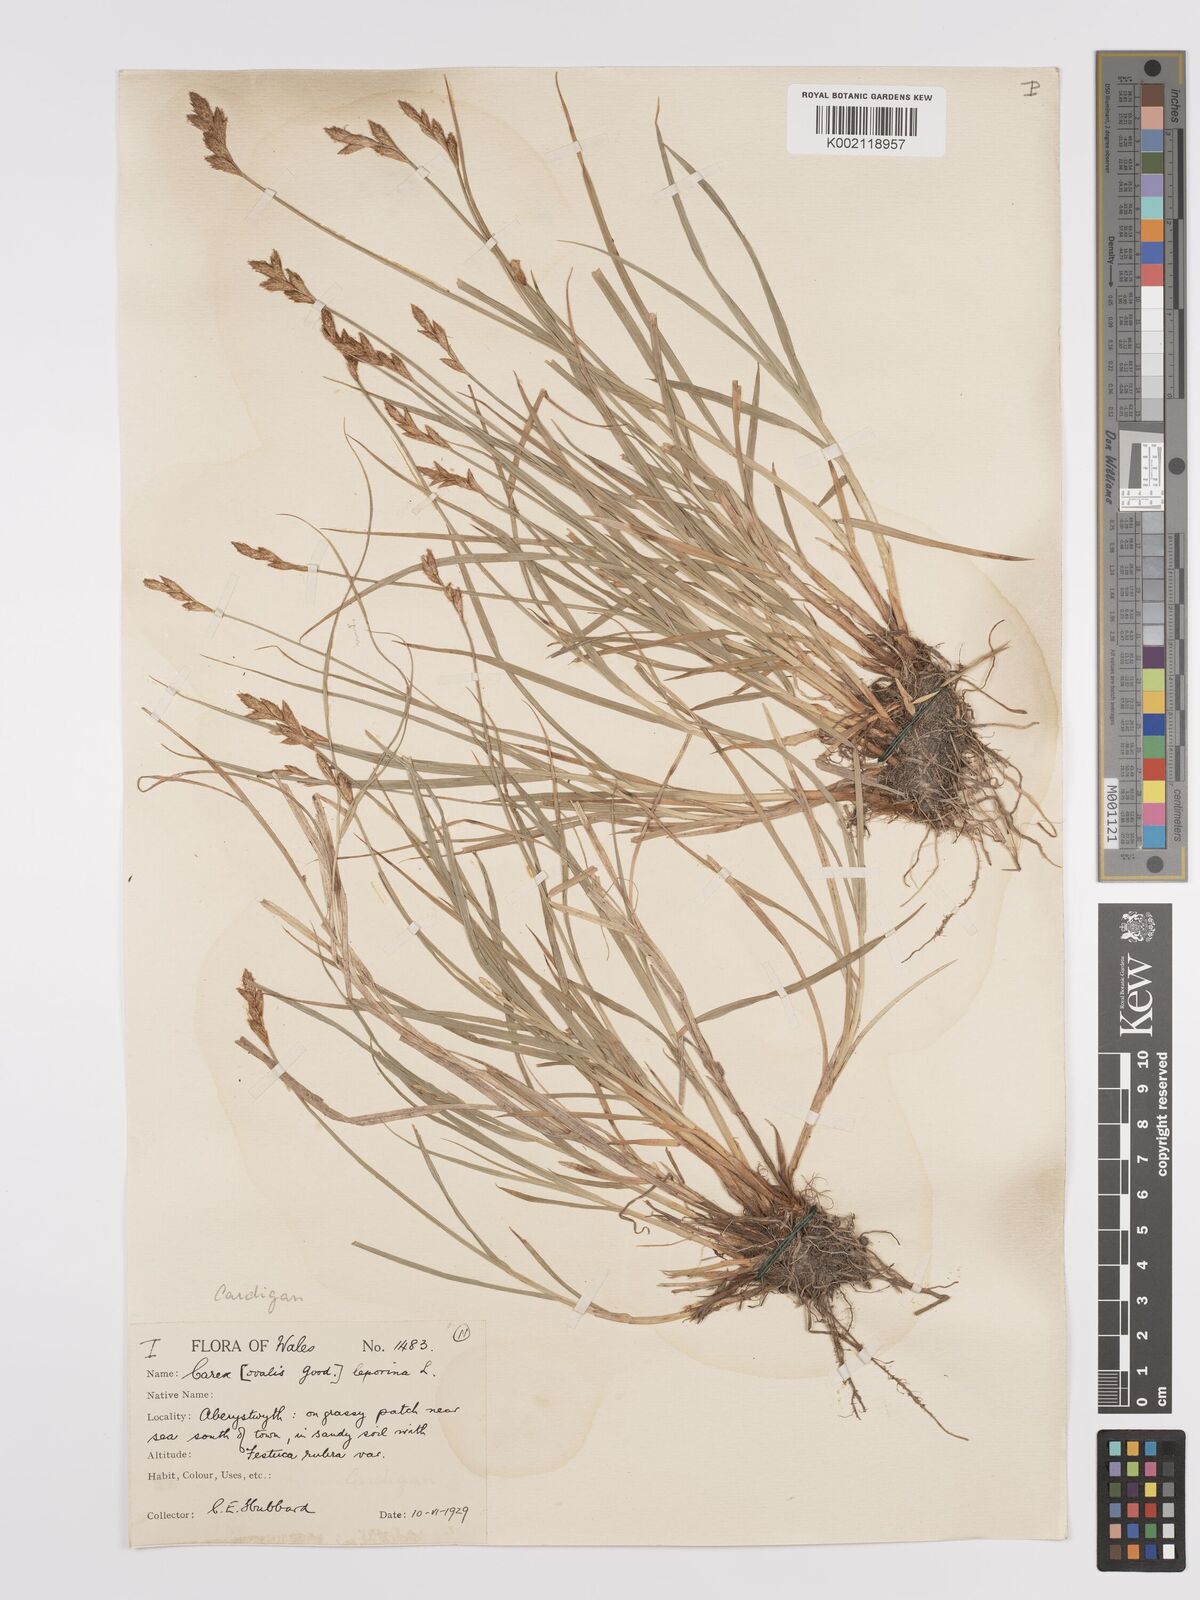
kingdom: Plantae
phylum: Tracheophyta
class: Liliopsida
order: Poales
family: Cyperaceae
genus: Carex
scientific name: Carex leporina
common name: Oval sedge
